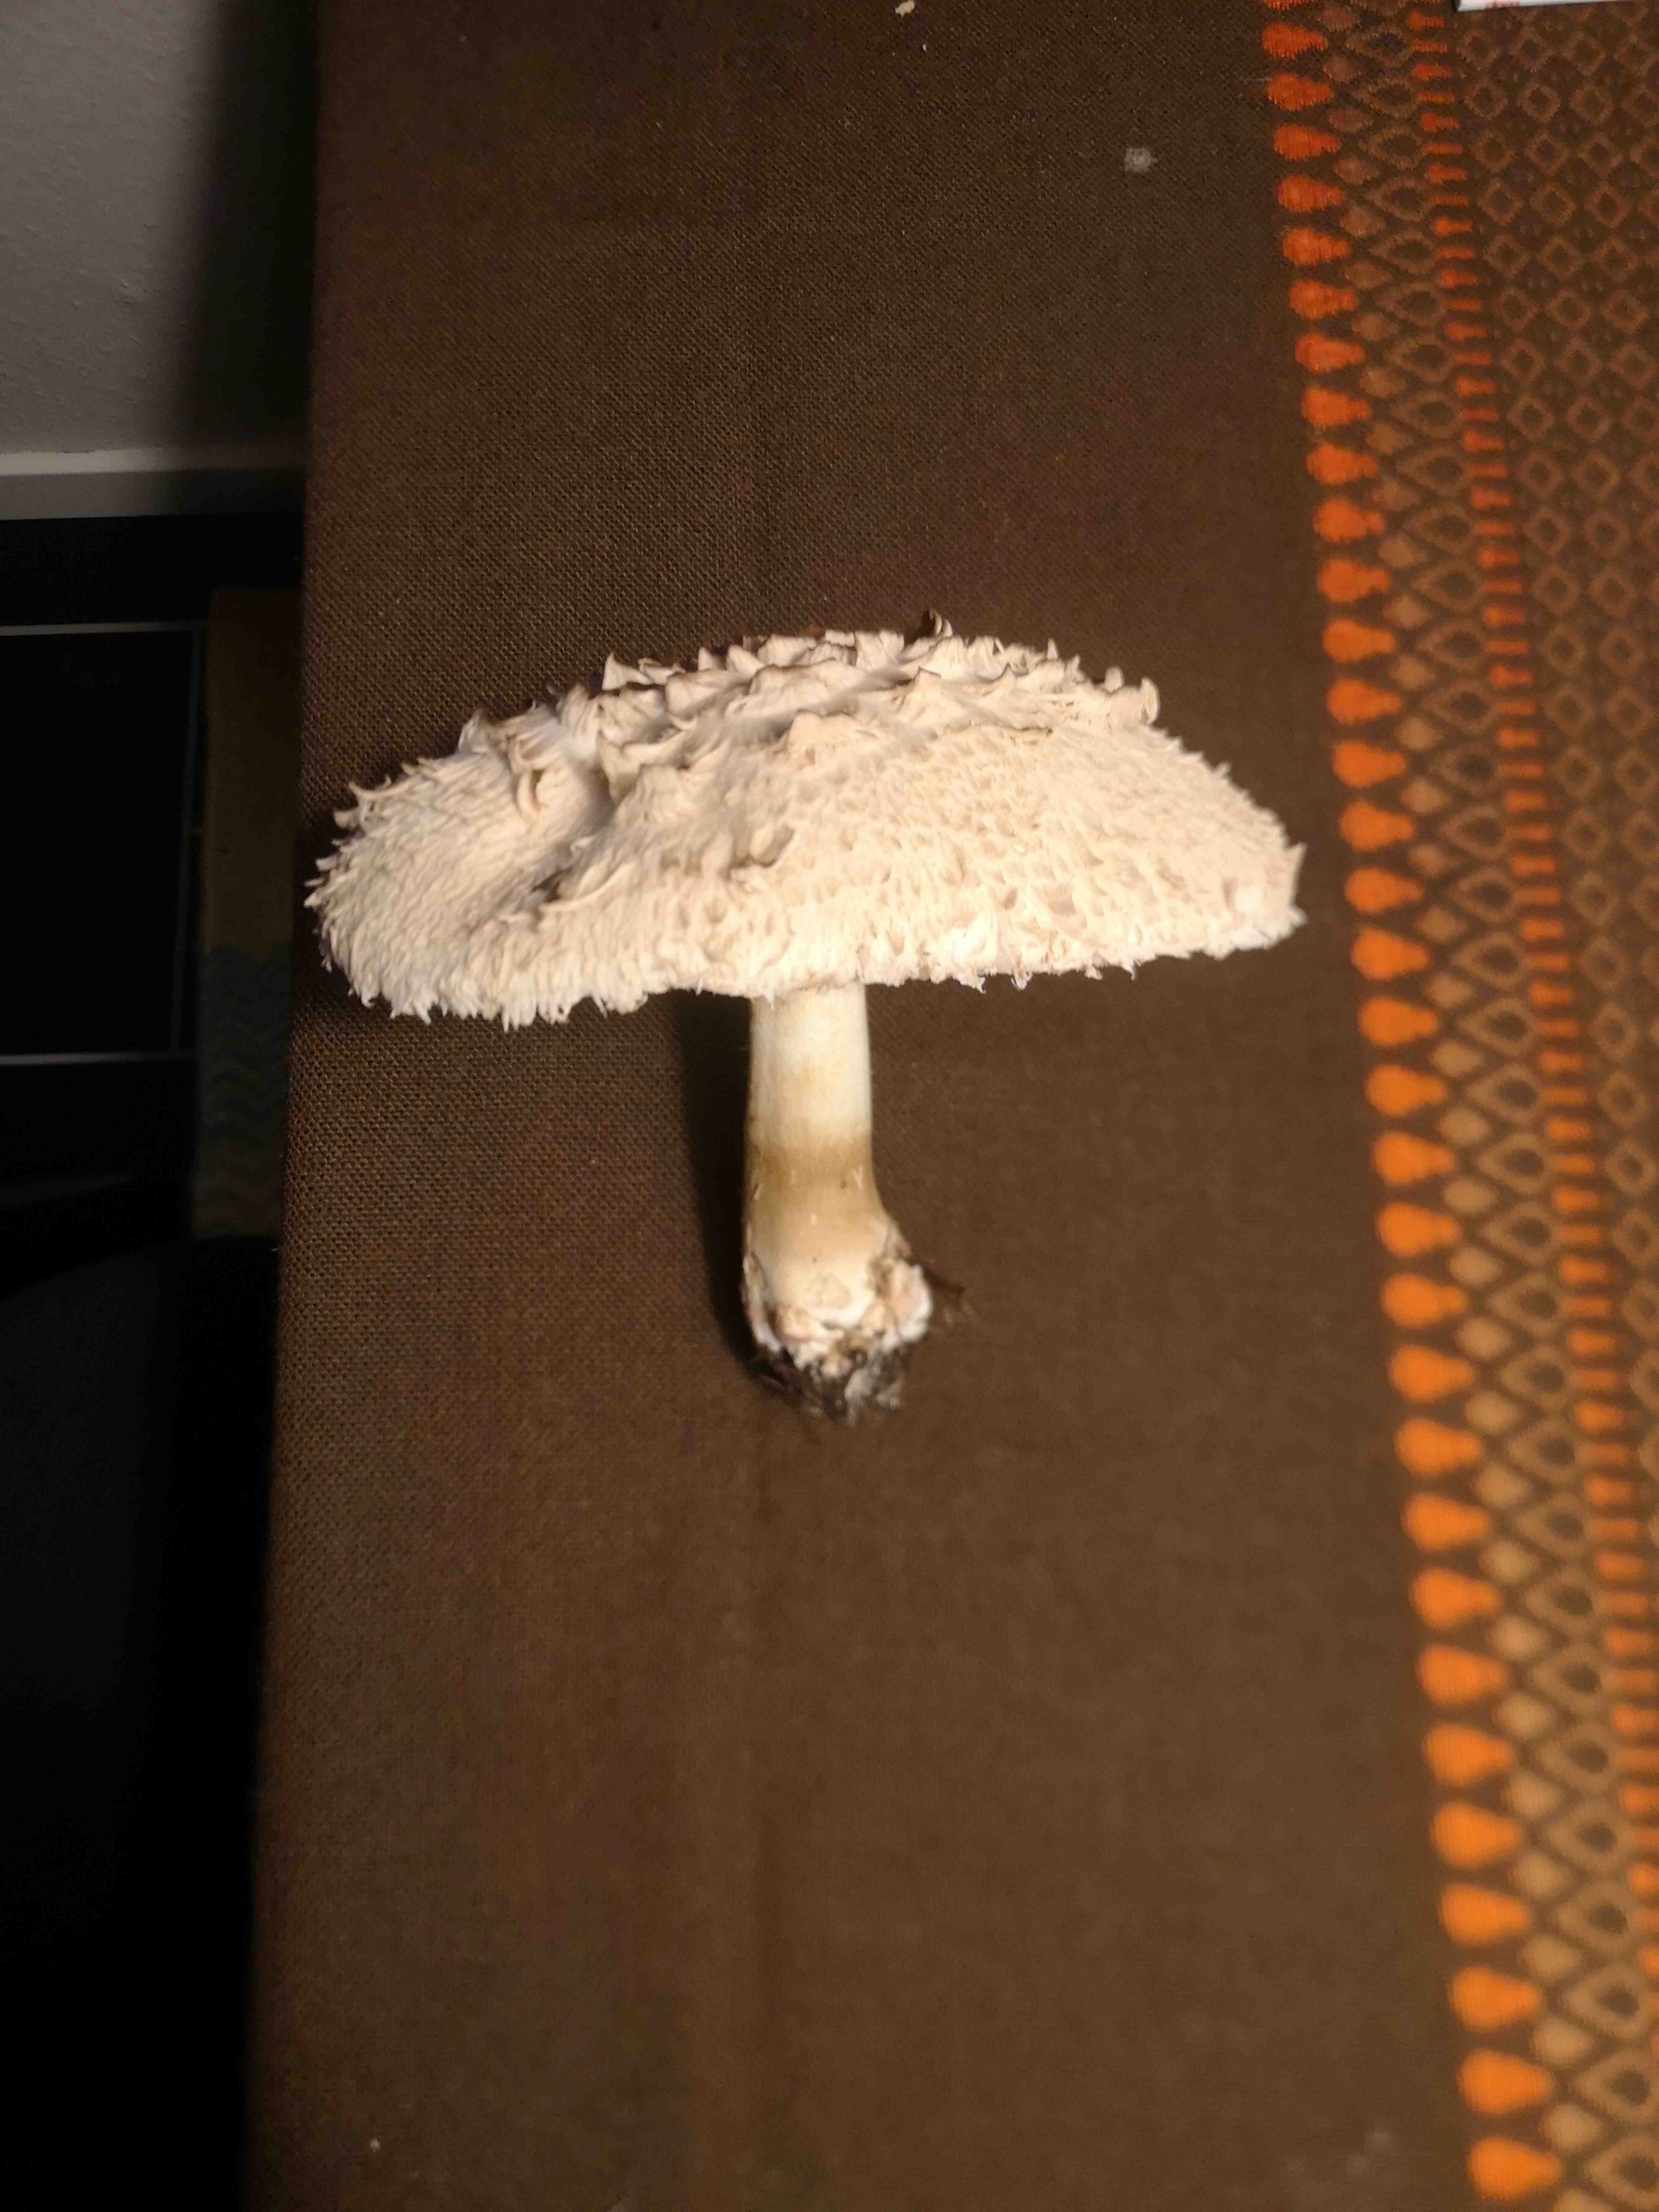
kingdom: Fungi
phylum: Basidiomycota
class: Agaricomycetes
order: Agaricales
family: Agaricaceae
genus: Chlorophyllum
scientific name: Chlorophyllum
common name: rabarberhat
